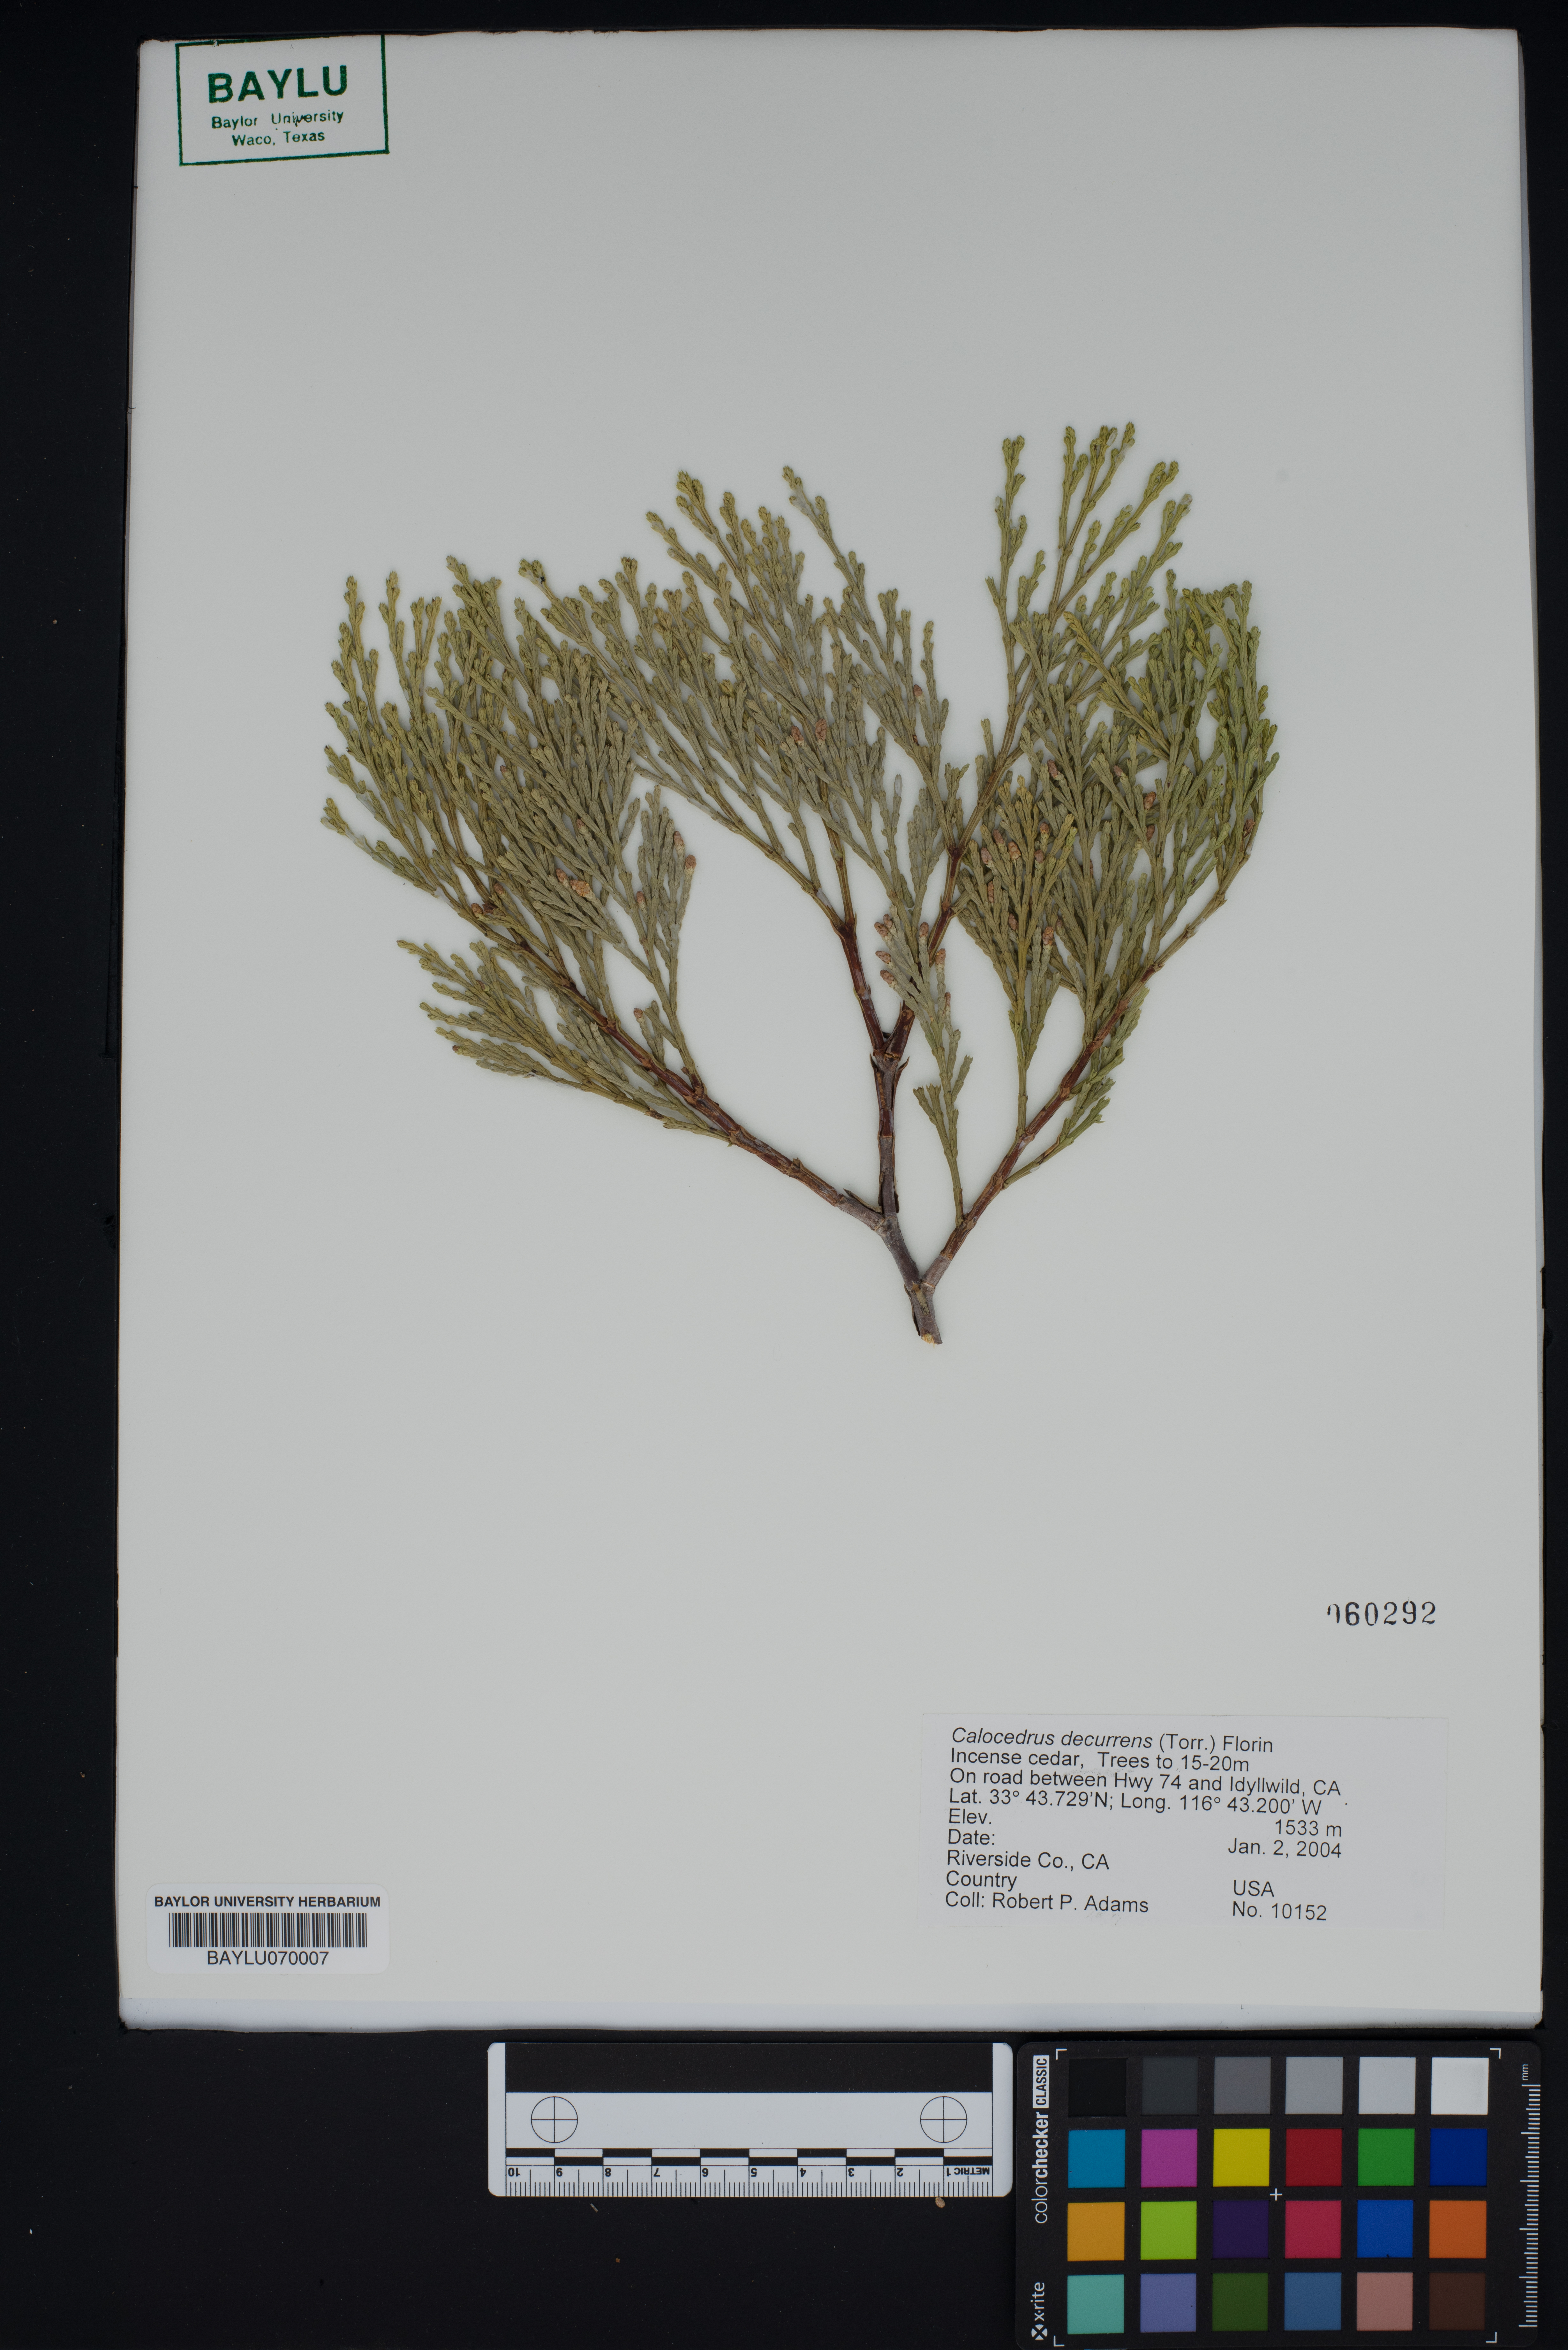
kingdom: Plantae
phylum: Tracheophyta
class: Pinopsida
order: Pinales
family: Cupressaceae
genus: Calocedrus
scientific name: Calocedrus decurrens
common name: Californian incense-cedar
